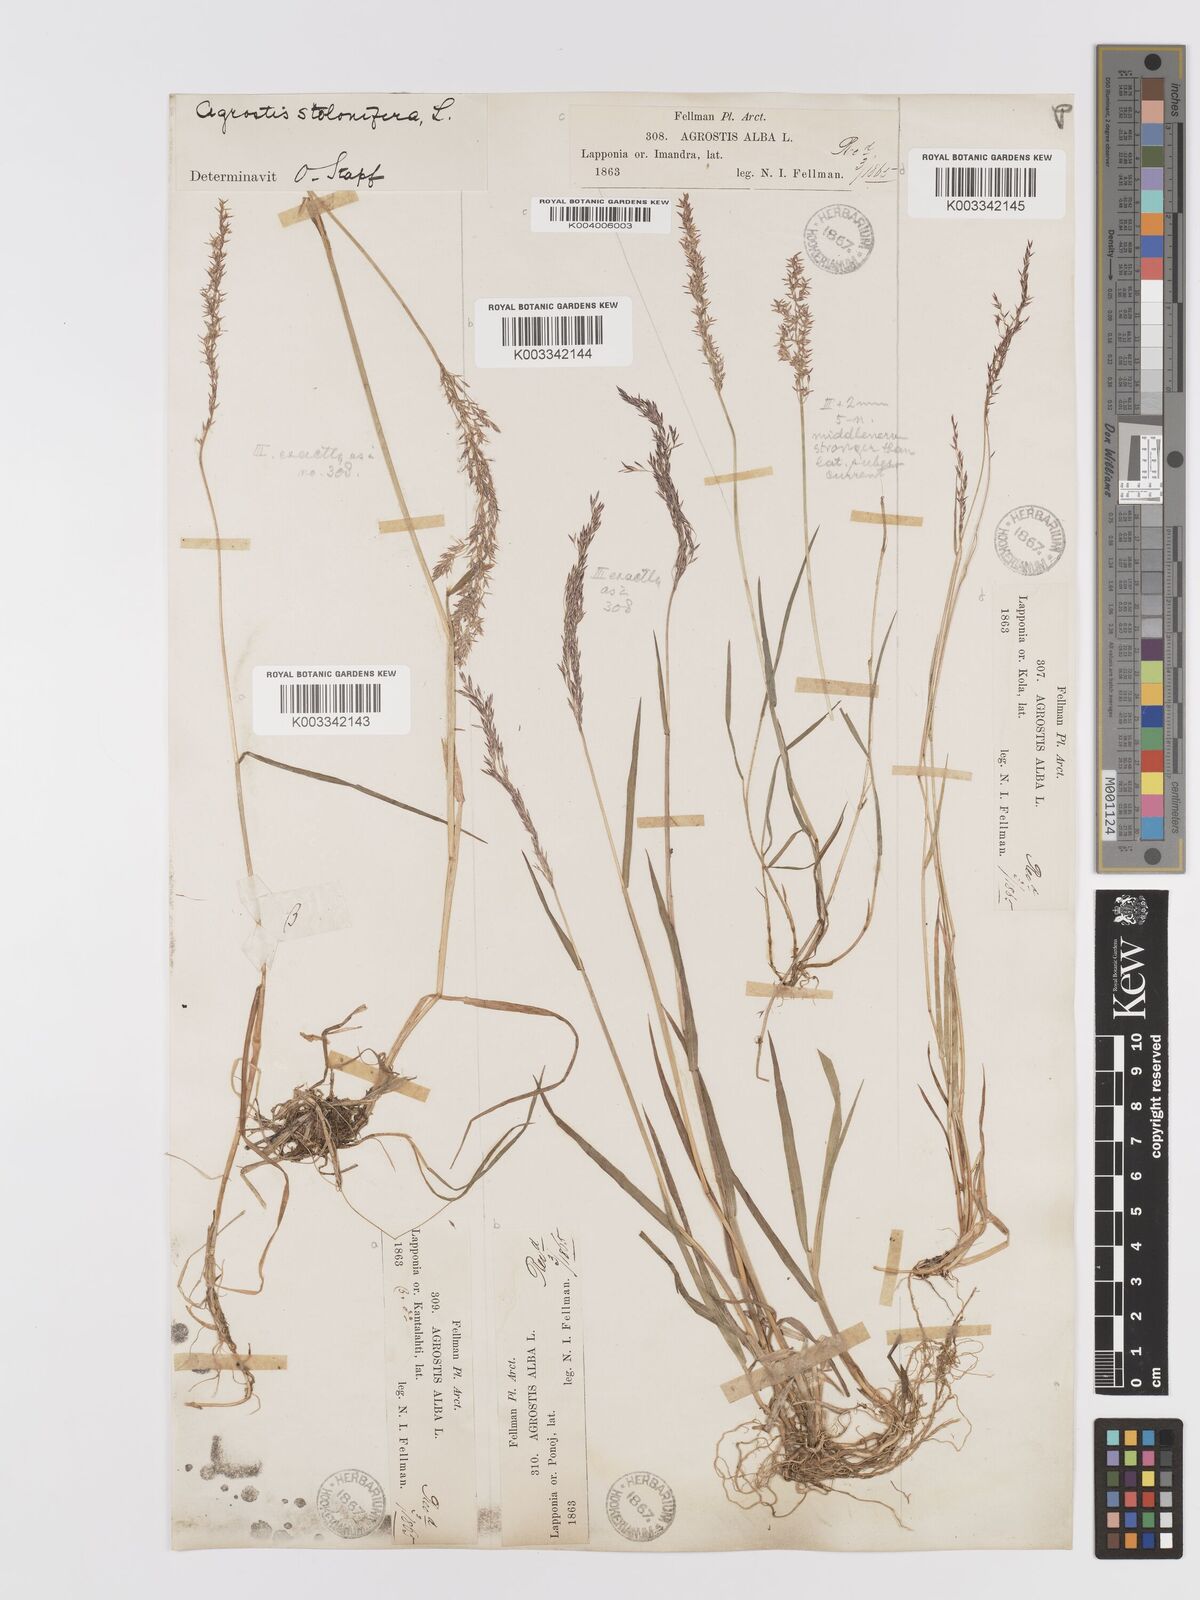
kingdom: Plantae
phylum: Tracheophyta
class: Liliopsida
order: Poales
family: Poaceae
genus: Agrostis
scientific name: Agrostis stolonifera
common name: Creeping bentgrass
